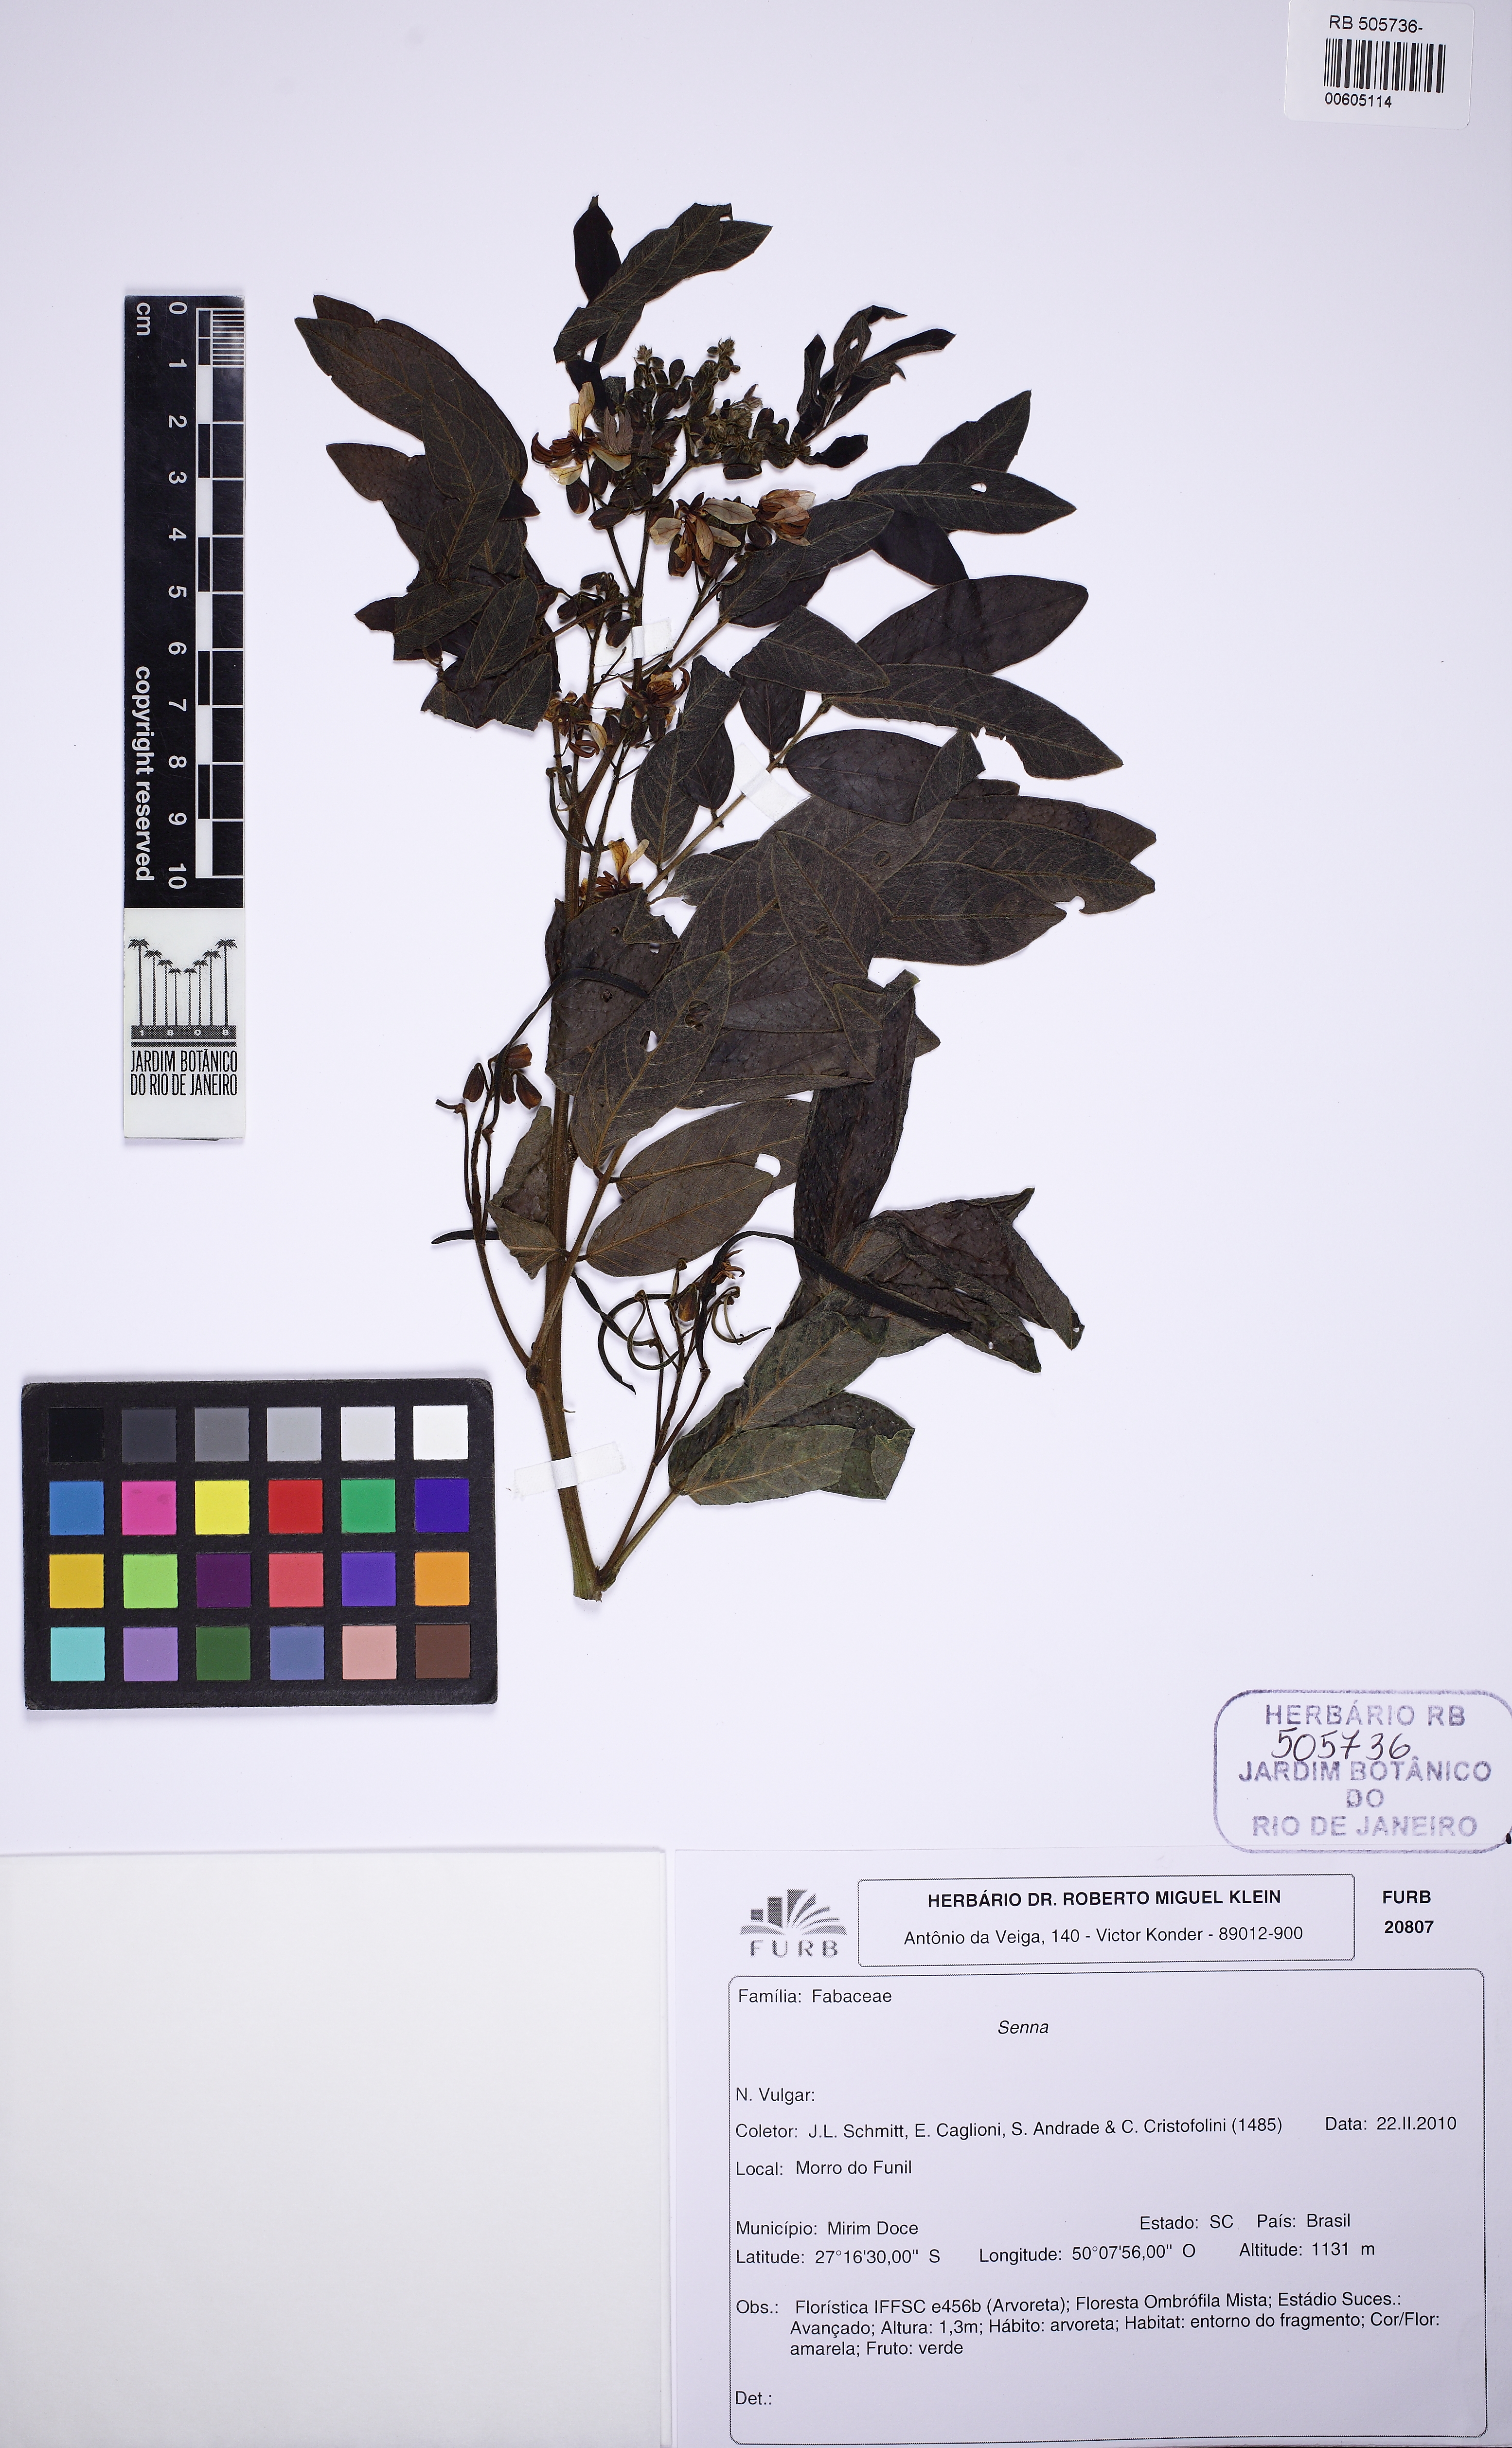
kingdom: Plantae
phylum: Tracheophyta
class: Magnoliopsida
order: Fabales
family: Fabaceae
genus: Senna
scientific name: Senna neglecta
